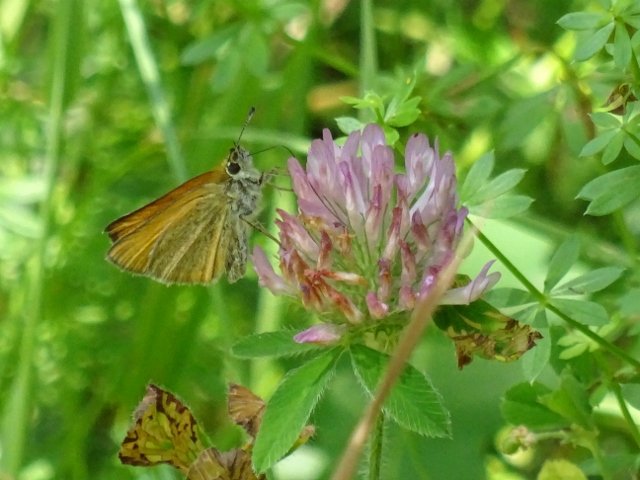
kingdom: Animalia
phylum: Arthropoda
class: Insecta
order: Lepidoptera
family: Hesperiidae
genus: Thymelicus
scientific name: Thymelicus lineola
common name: European Skipper
